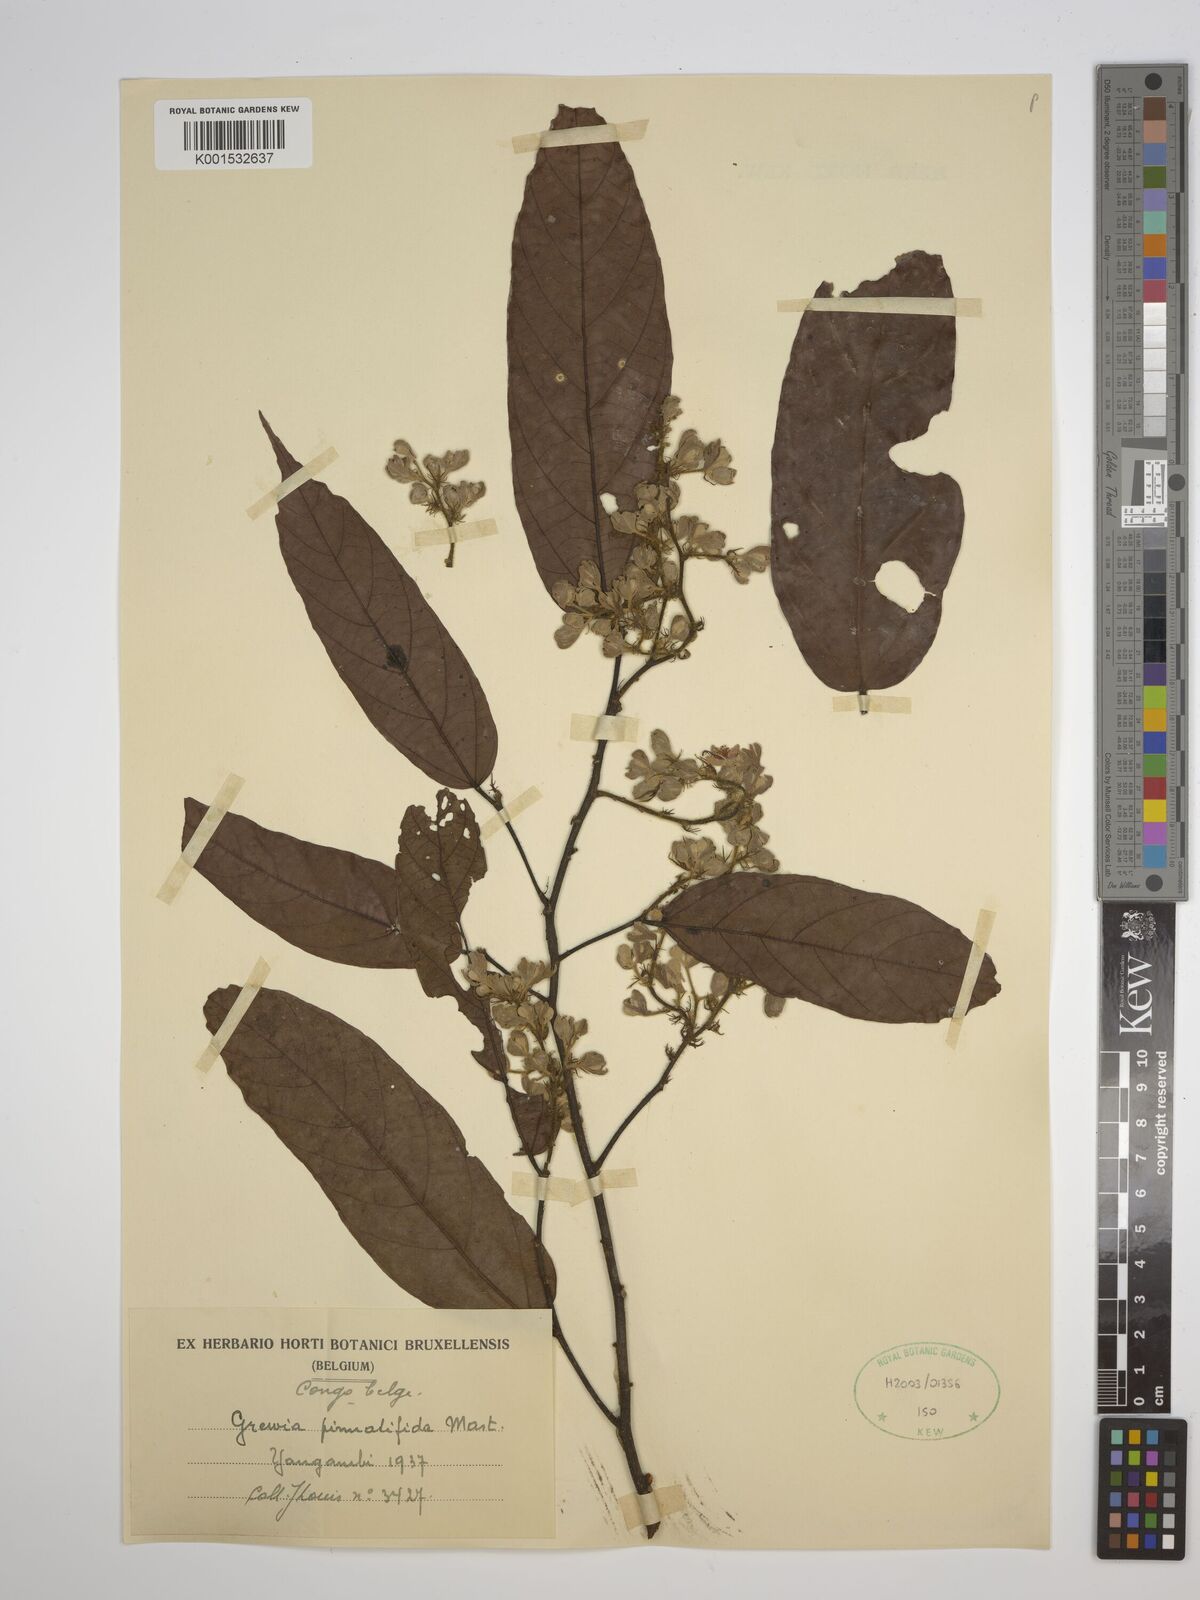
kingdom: Plantae
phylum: Tracheophyta
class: Magnoliopsida
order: Malvales
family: Malvaceae
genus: Microcos
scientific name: Microcos pinnatifida
